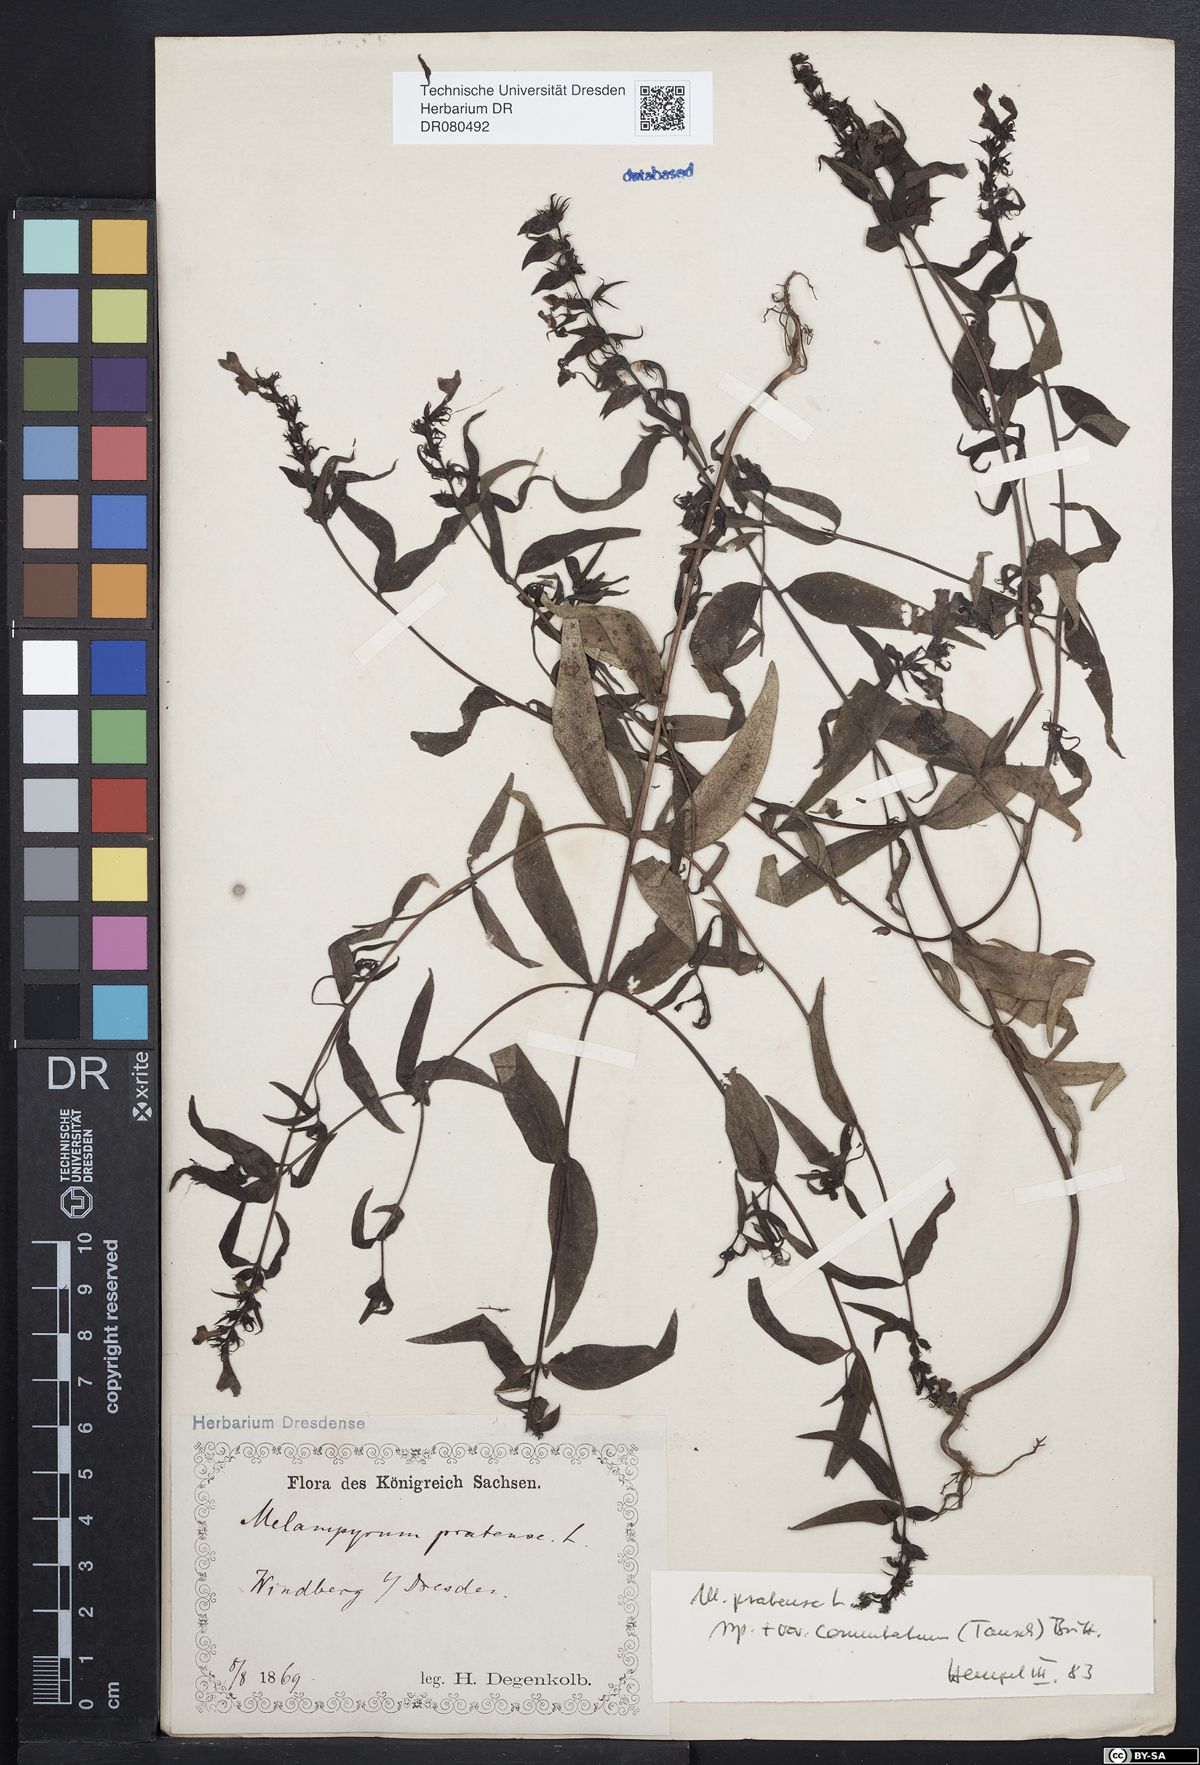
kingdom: Plantae
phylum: Tracheophyta
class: Magnoliopsida
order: Lamiales
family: Orobanchaceae
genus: Melampyrum
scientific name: Melampyrum pratense
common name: Common cow-wheat
